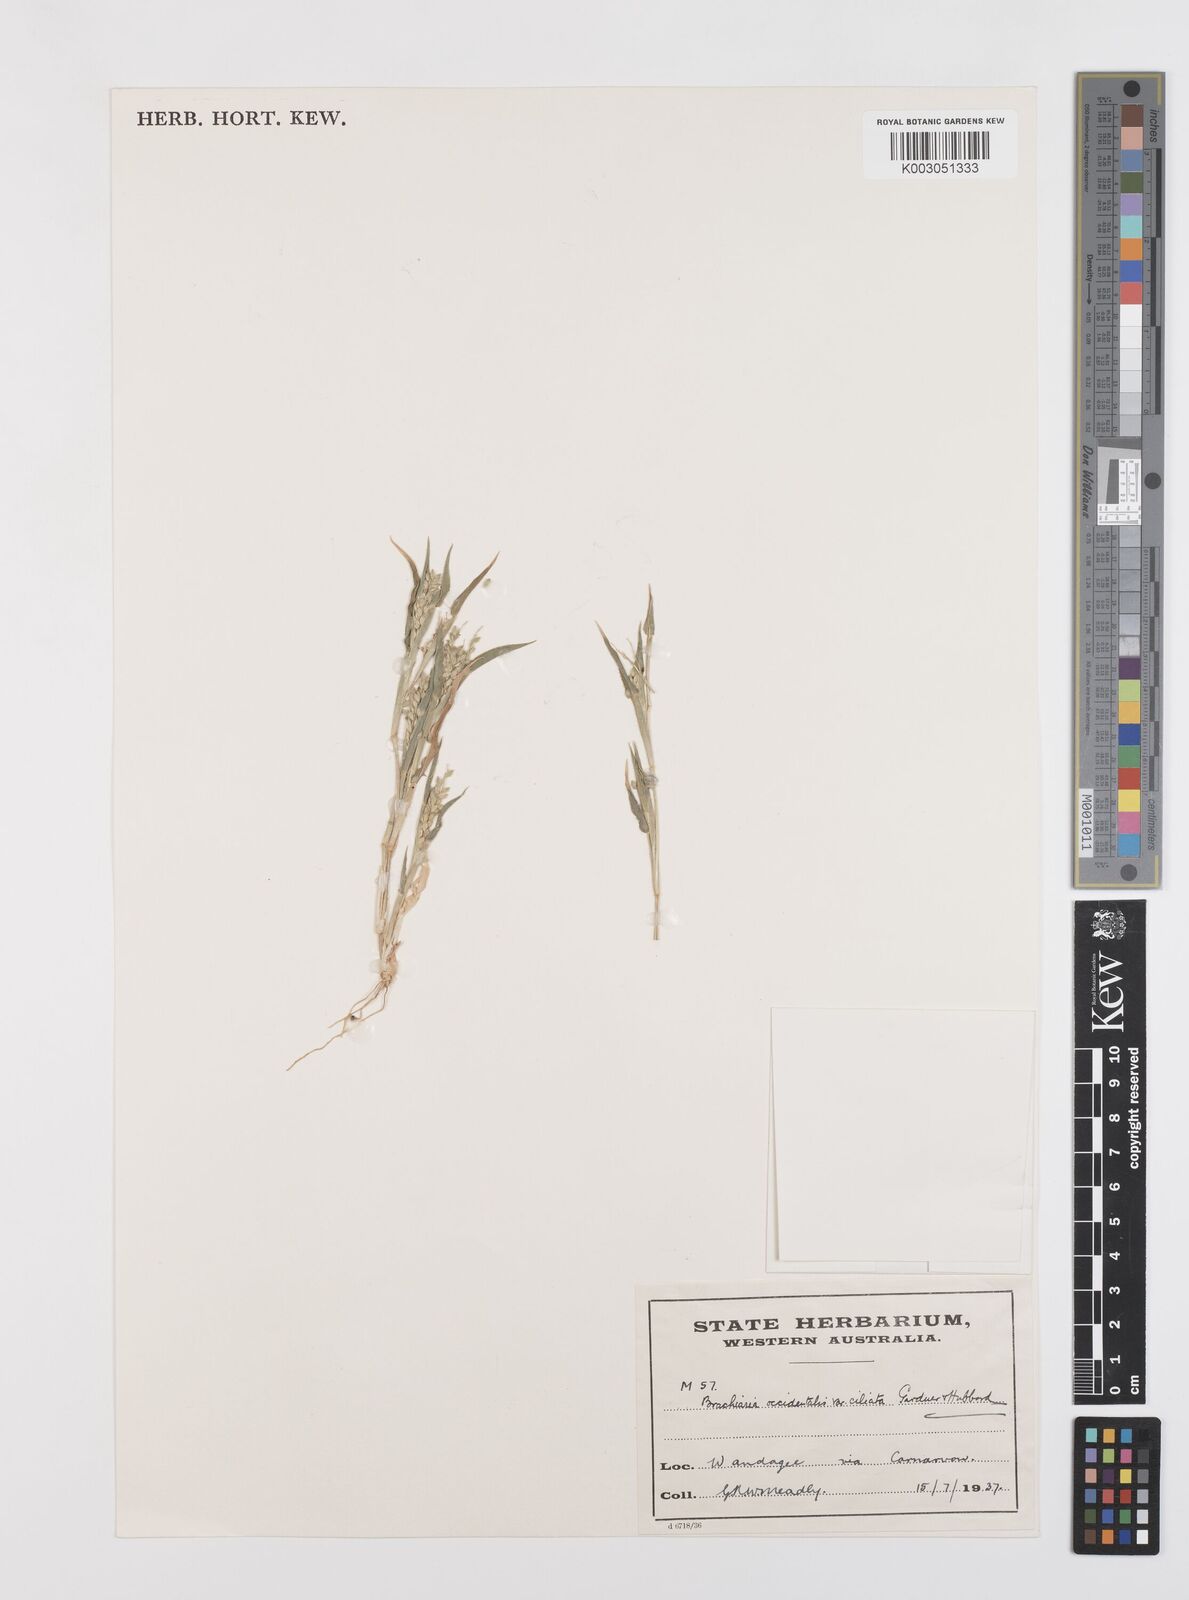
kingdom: Plantae
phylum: Tracheophyta
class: Liliopsida
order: Poales
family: Poaceae
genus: Urochloa
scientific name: Urochloa occidentalis
